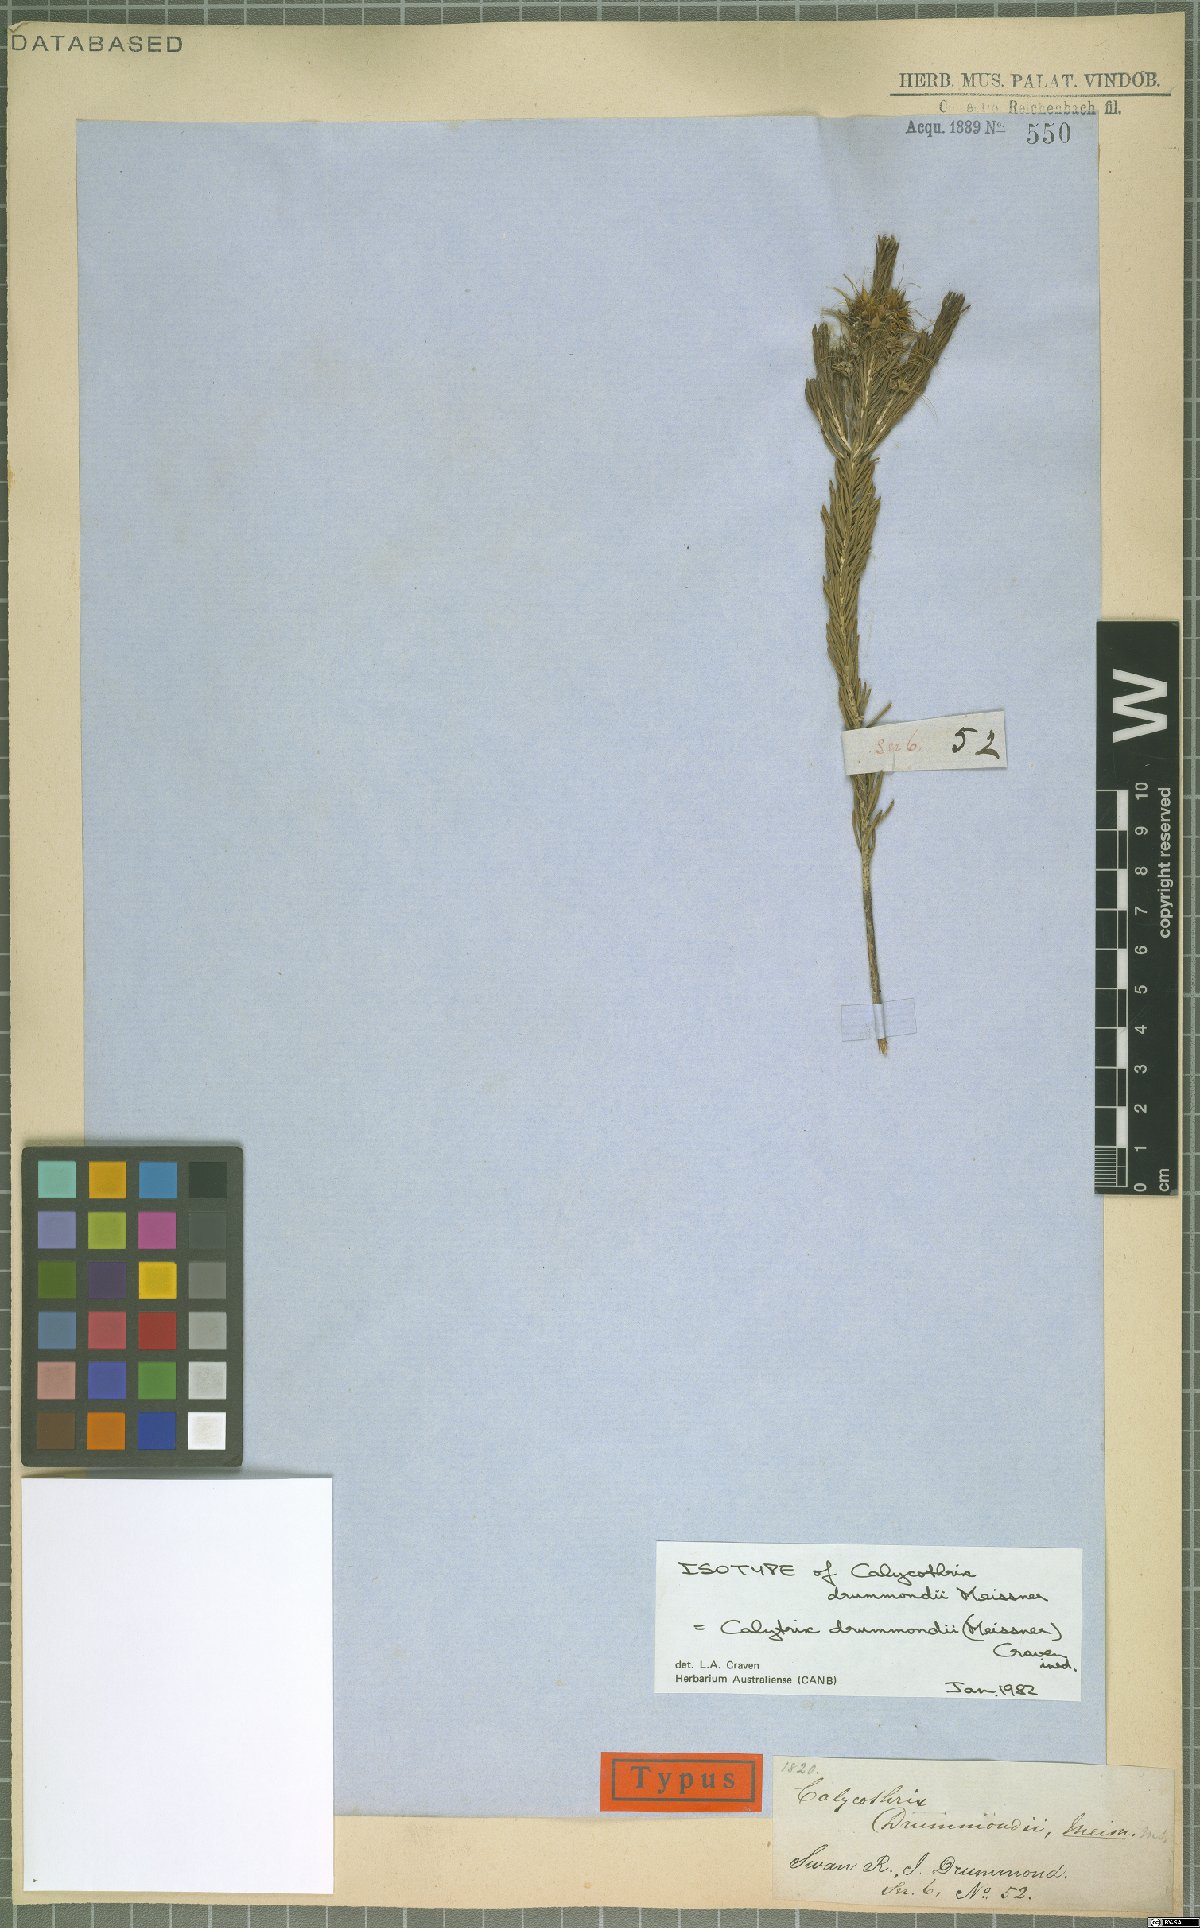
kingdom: Plantae
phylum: Tracheophyta
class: Magnoliopsida
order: Myrtales
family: Myrtaceae
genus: Calytrix
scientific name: Calytrix drummondii
